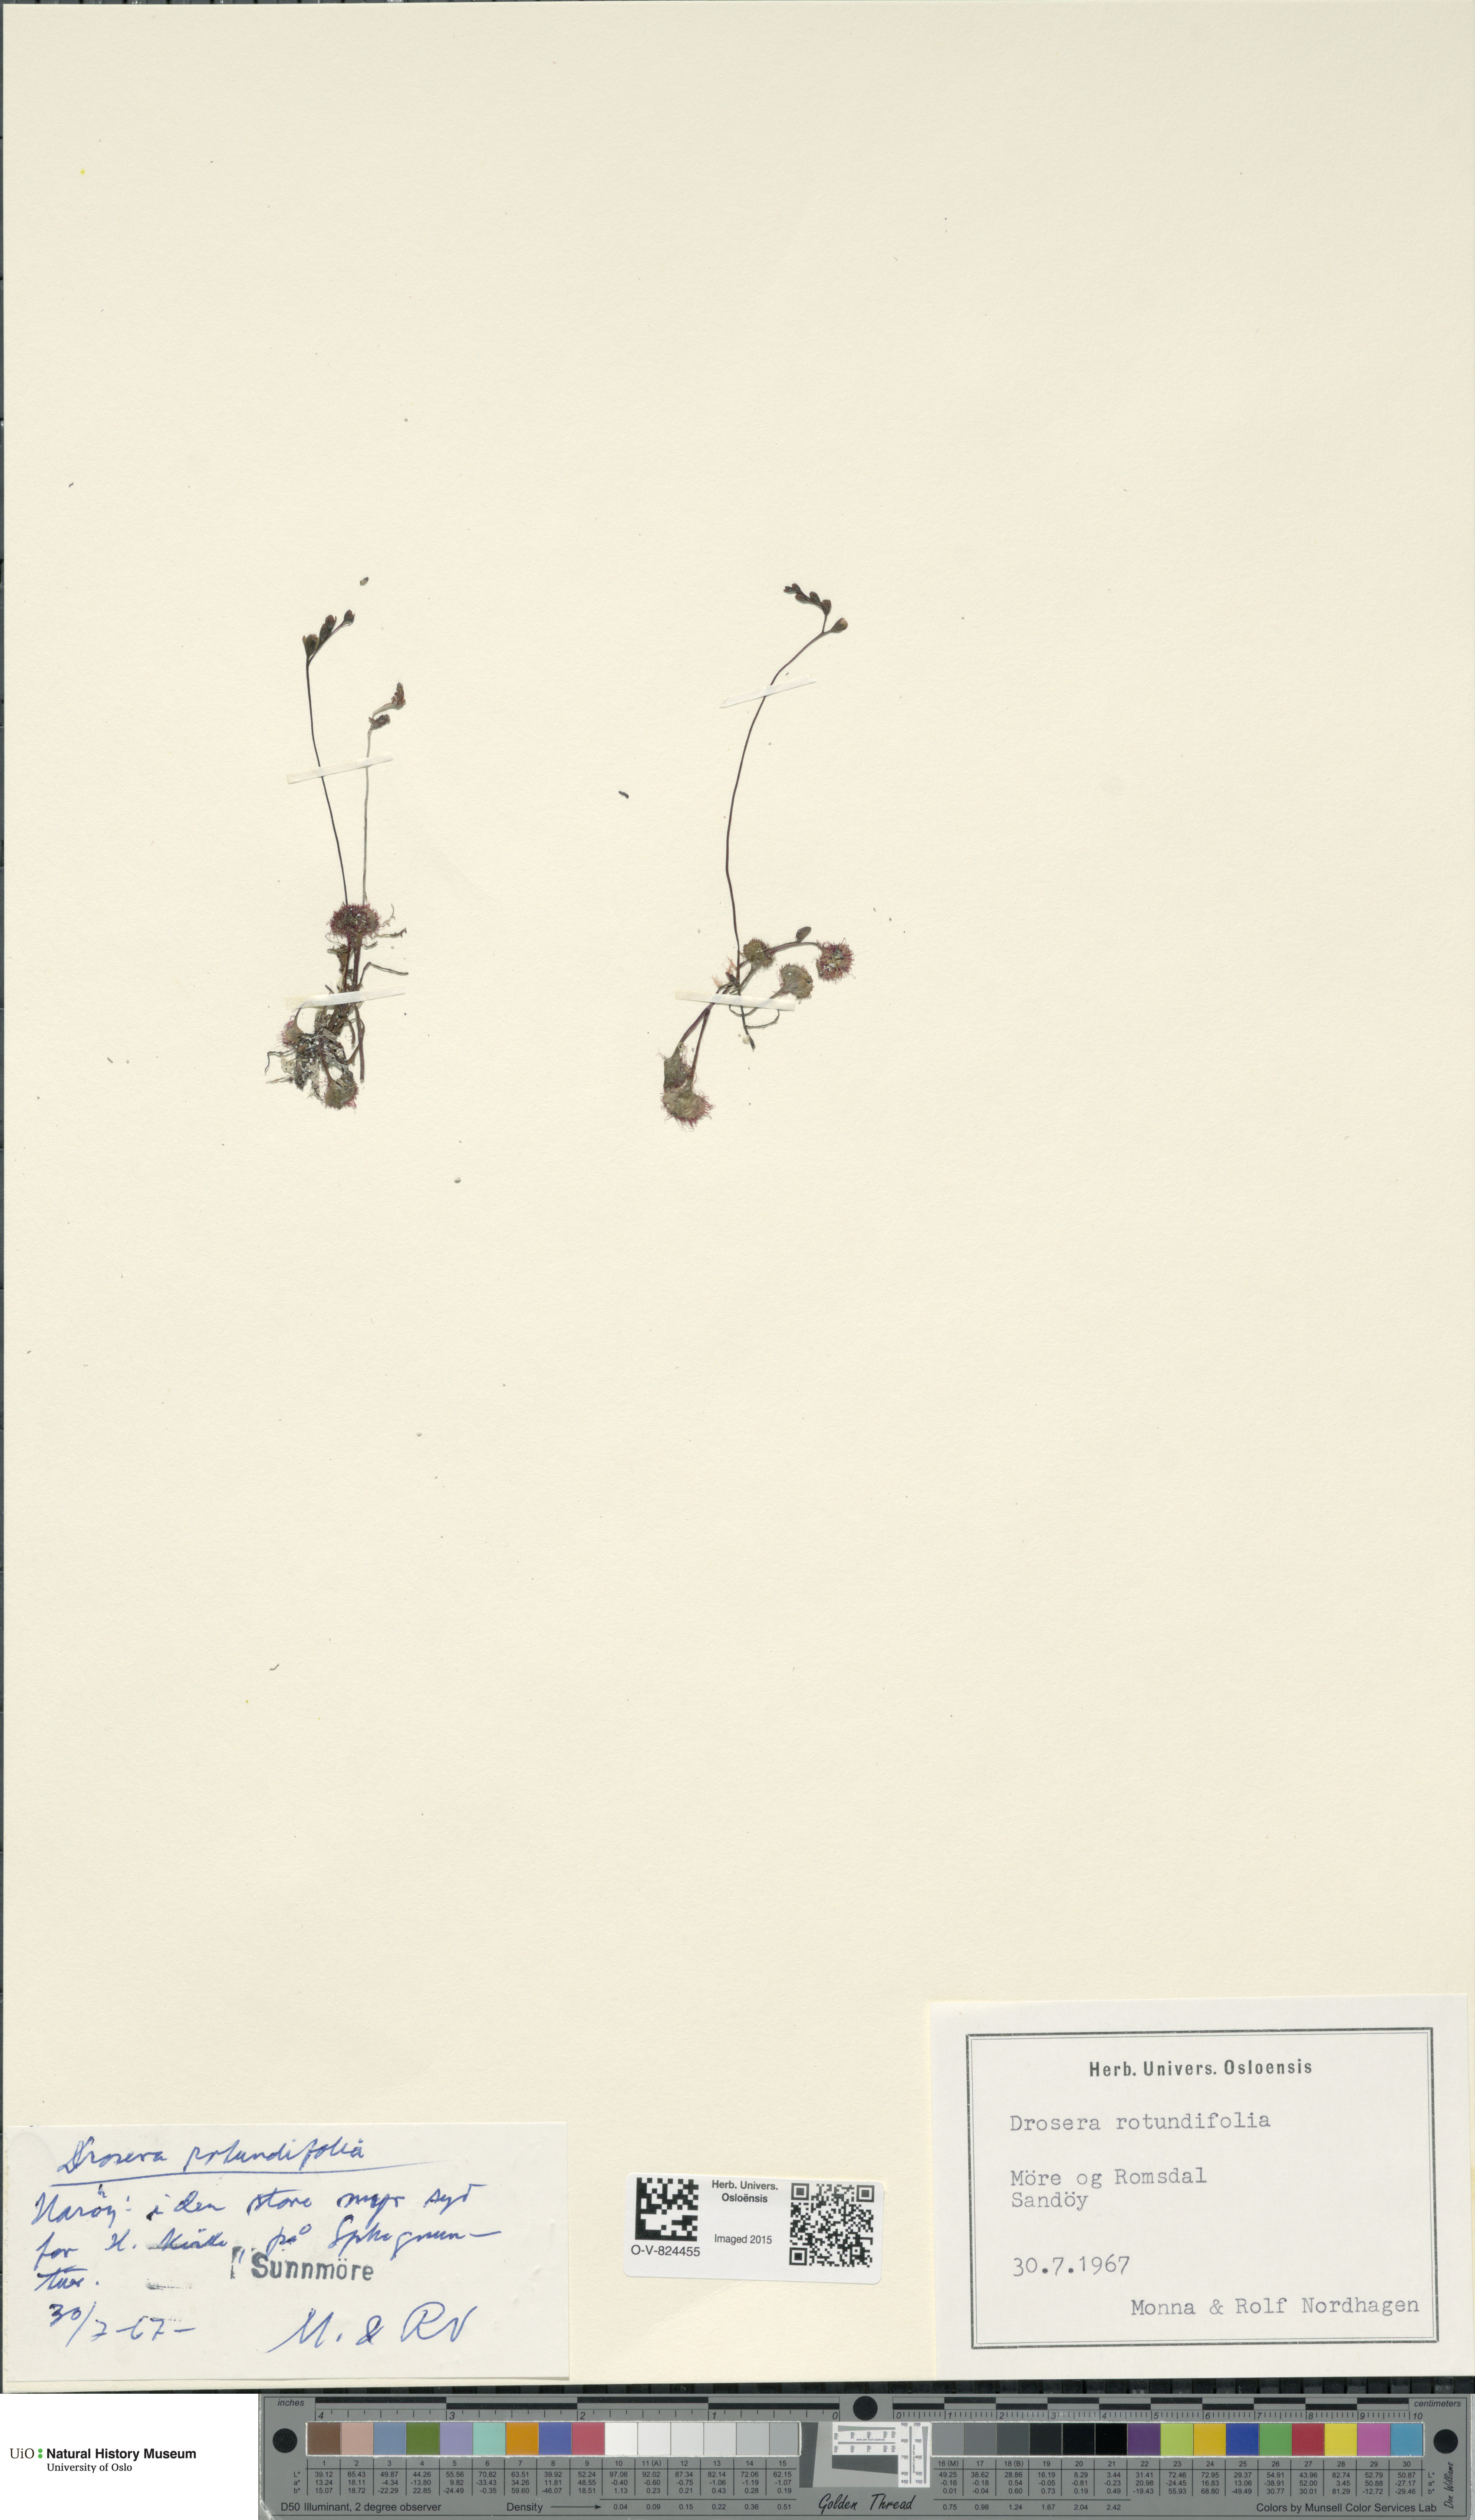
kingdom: Plantae
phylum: Tracheophyta
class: Magnoliopsida
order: Caryophyllales
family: Droseraceae
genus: Drosera
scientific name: Drosera rotundifolia
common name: Round-leaved sundew
